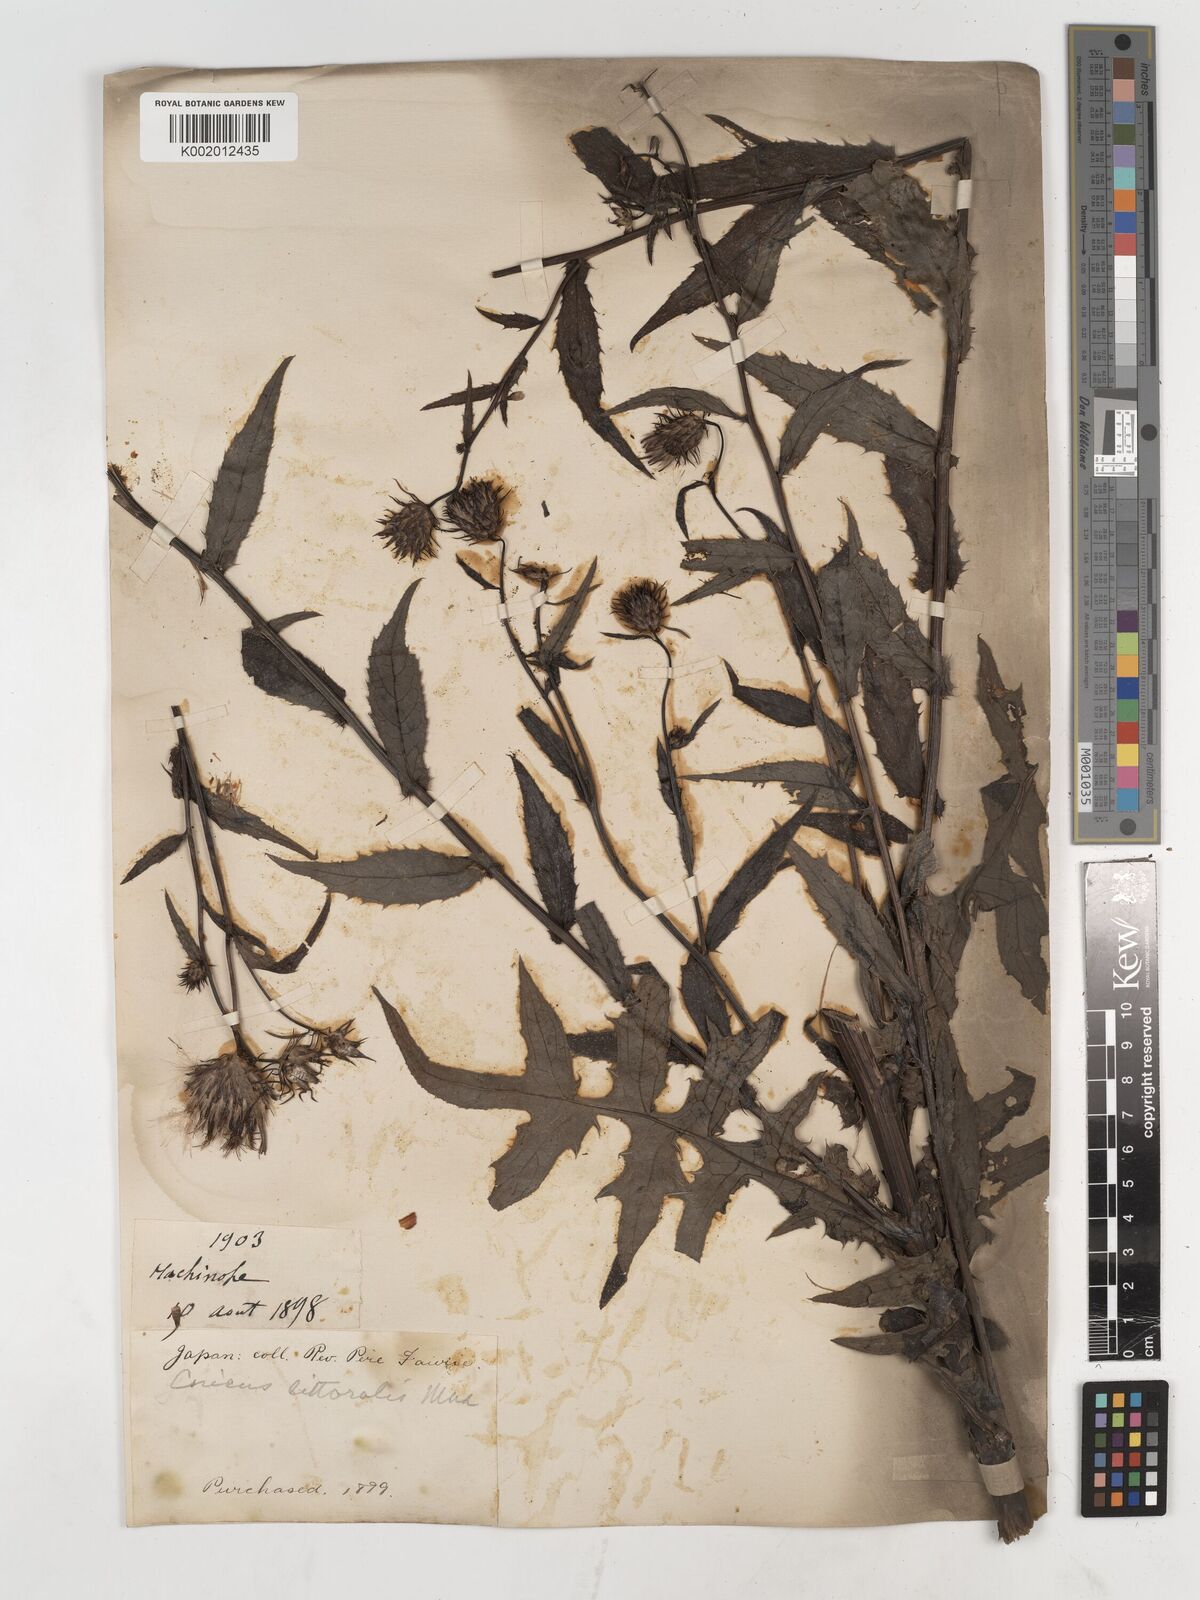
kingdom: Plantae
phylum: Tracheophyta
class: Magnoliopsida
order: Asterales
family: Asteraceae
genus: Cirsium
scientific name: Cirsium
